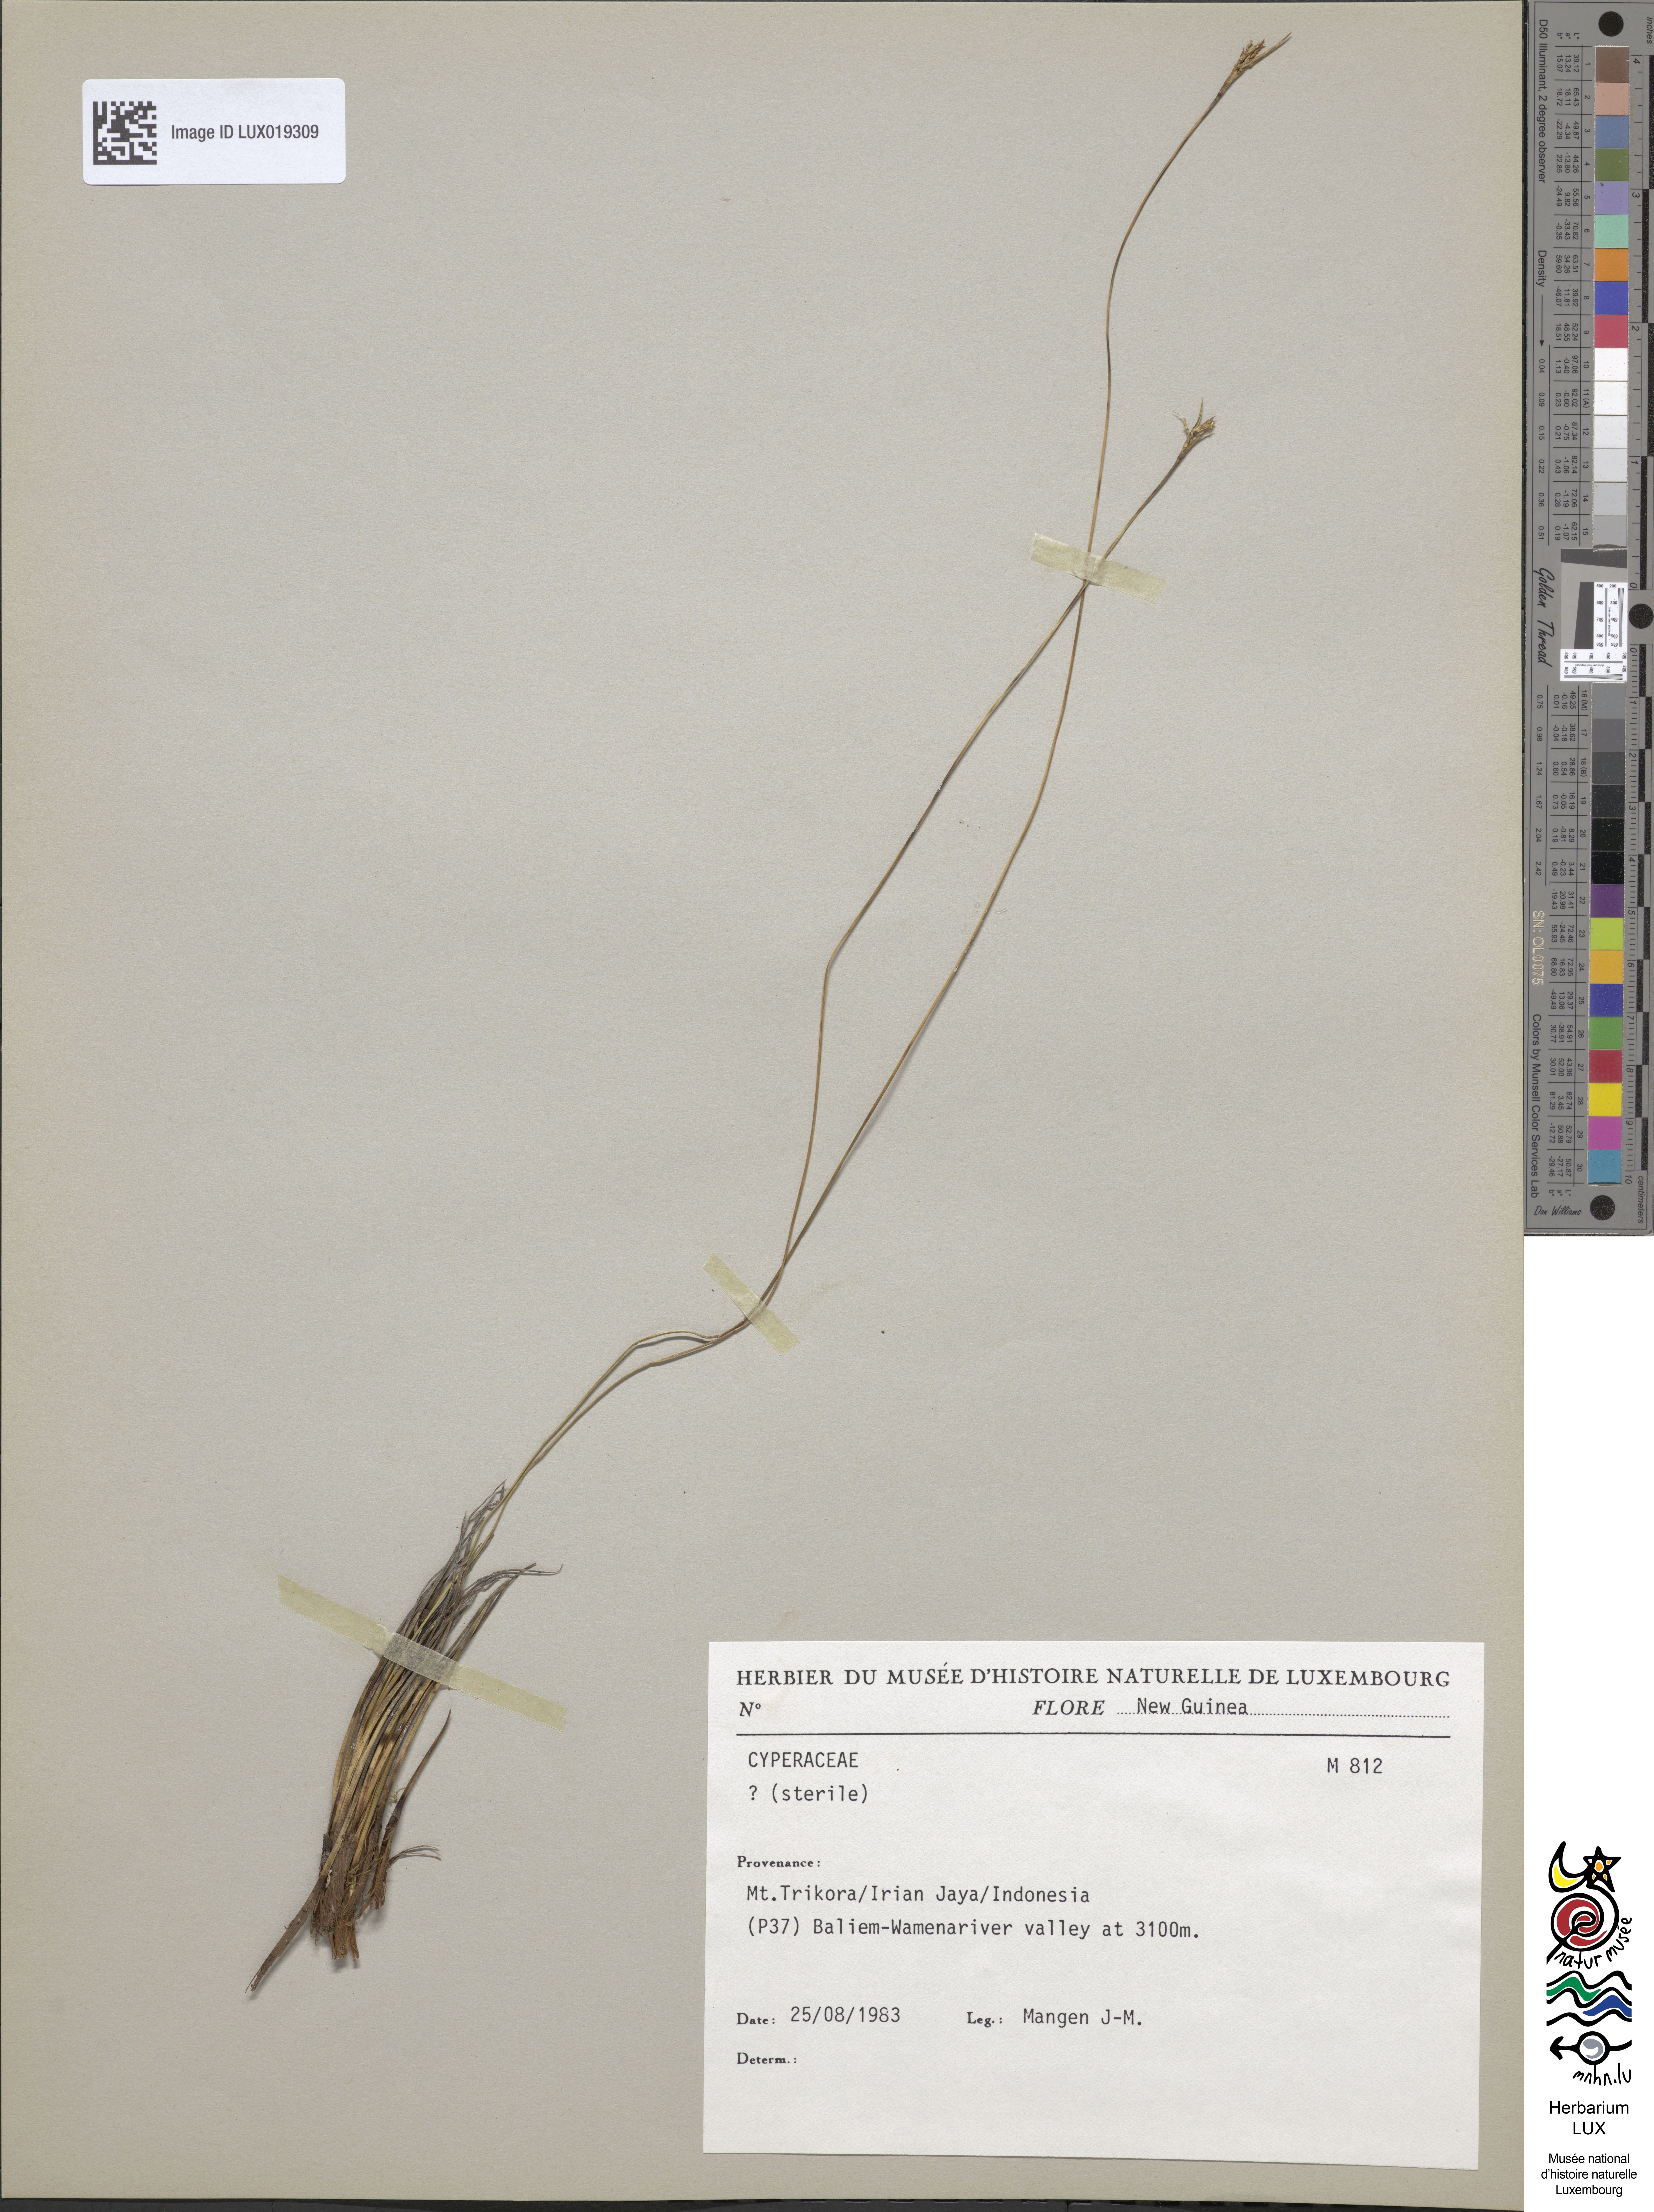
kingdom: Plantae
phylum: Tracheophyta
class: Liliopsida
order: Poales
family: Cyperaceae
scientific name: Cyperaceae
